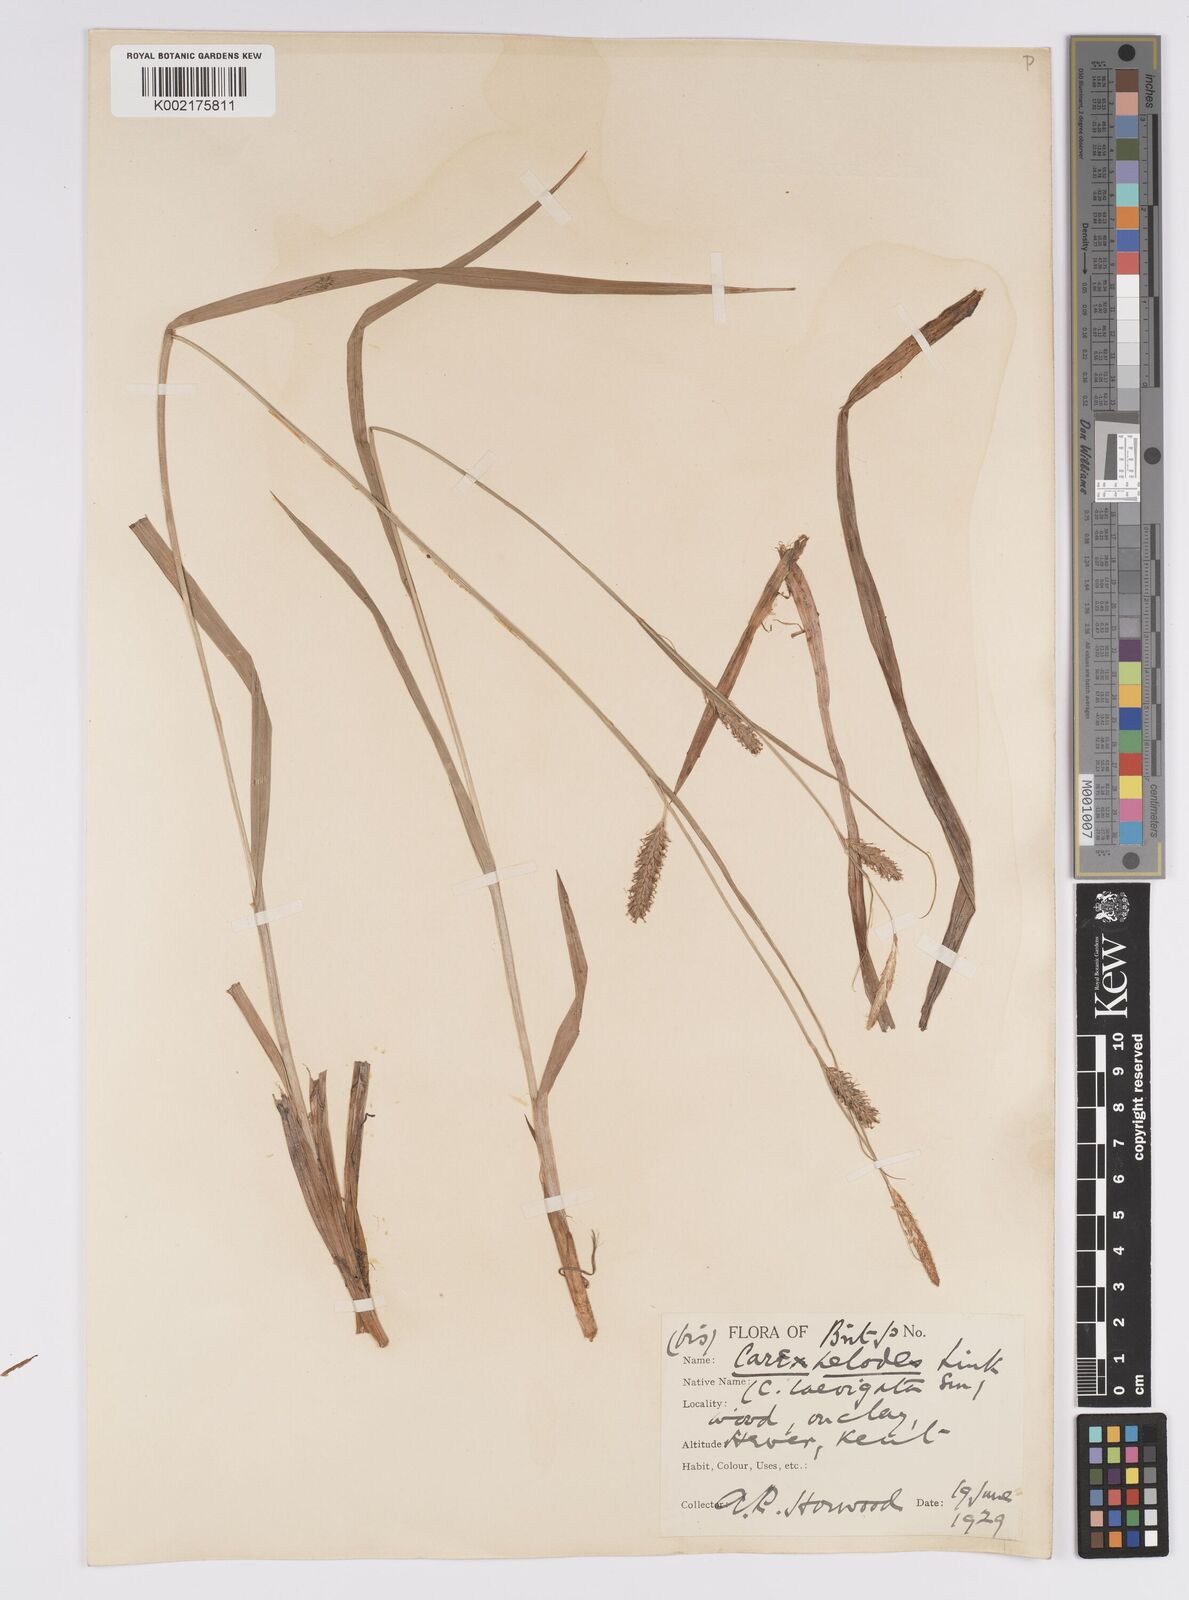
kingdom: Plantae
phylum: Tracheophyta
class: Liliopsida
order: Poales
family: Cyperaceae
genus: Carex
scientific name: Carex laevigata
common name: Smooth-stalked sedge
